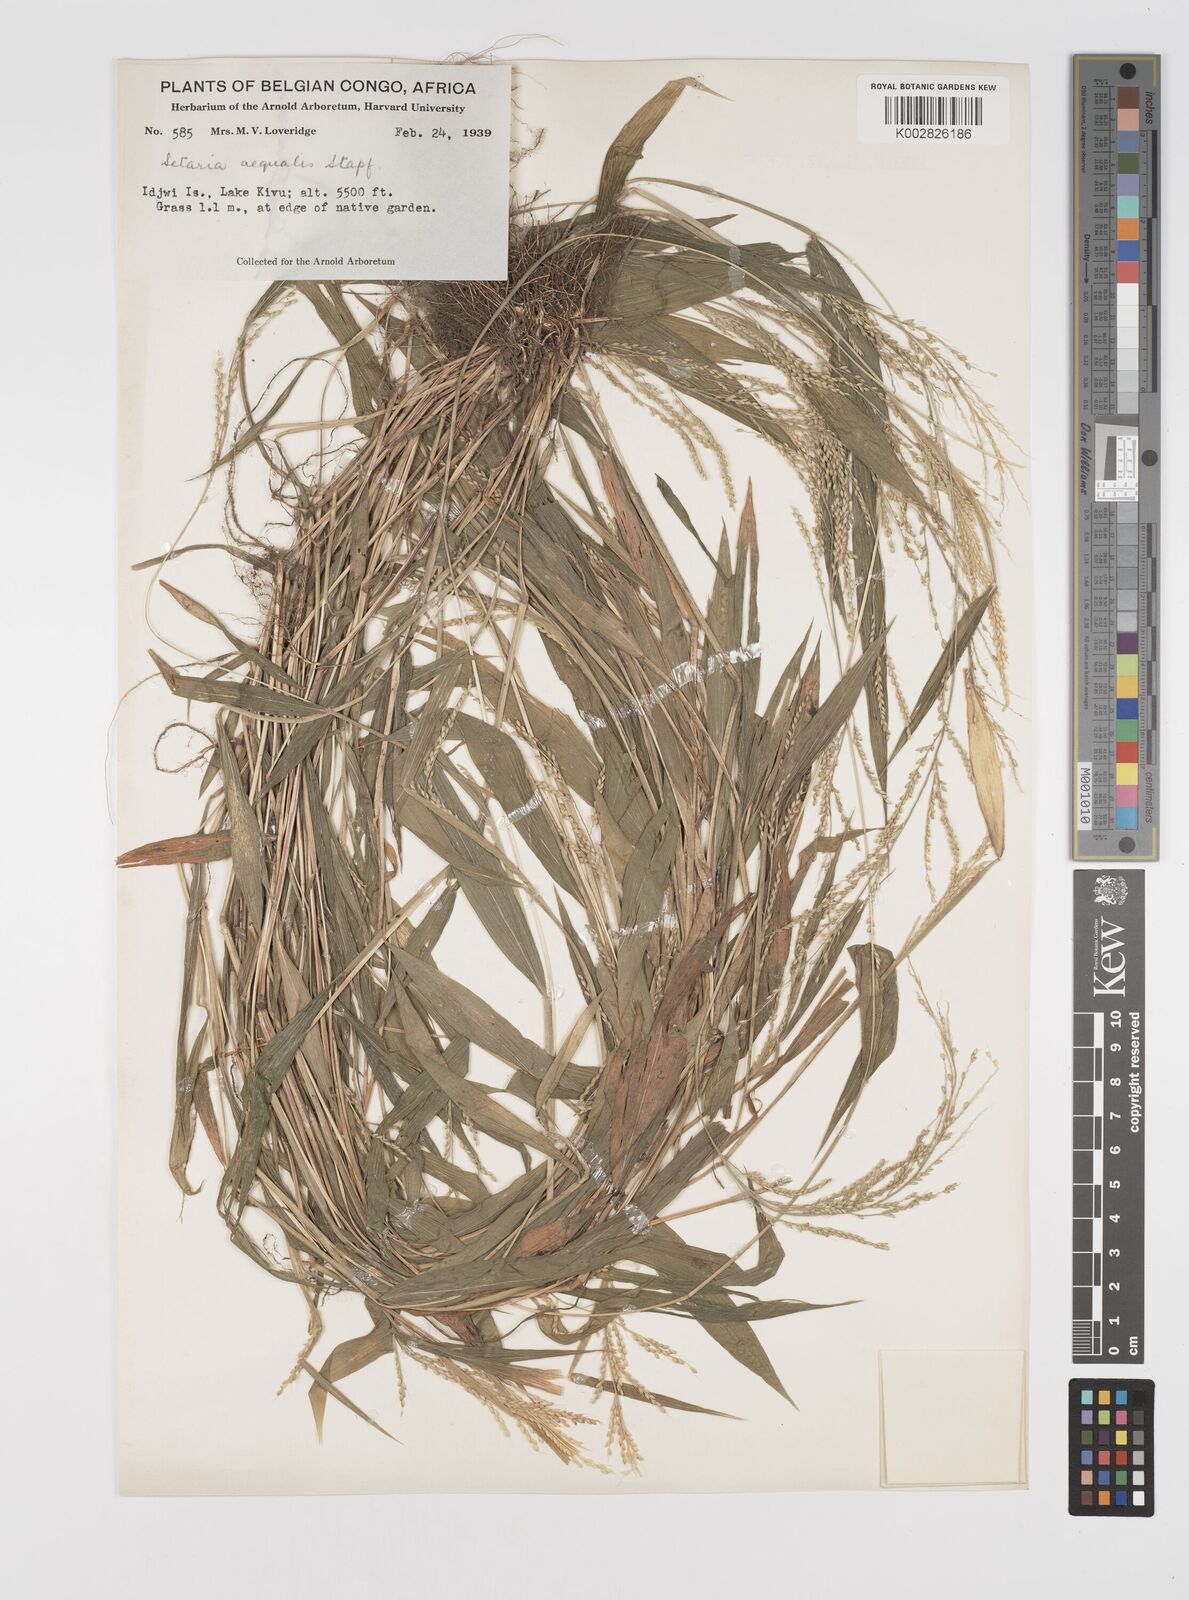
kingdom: Plantae
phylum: Tracheophyta
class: Liliopsida
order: Poales
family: Poaceae
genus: Setaria
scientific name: Setaria homonyma
